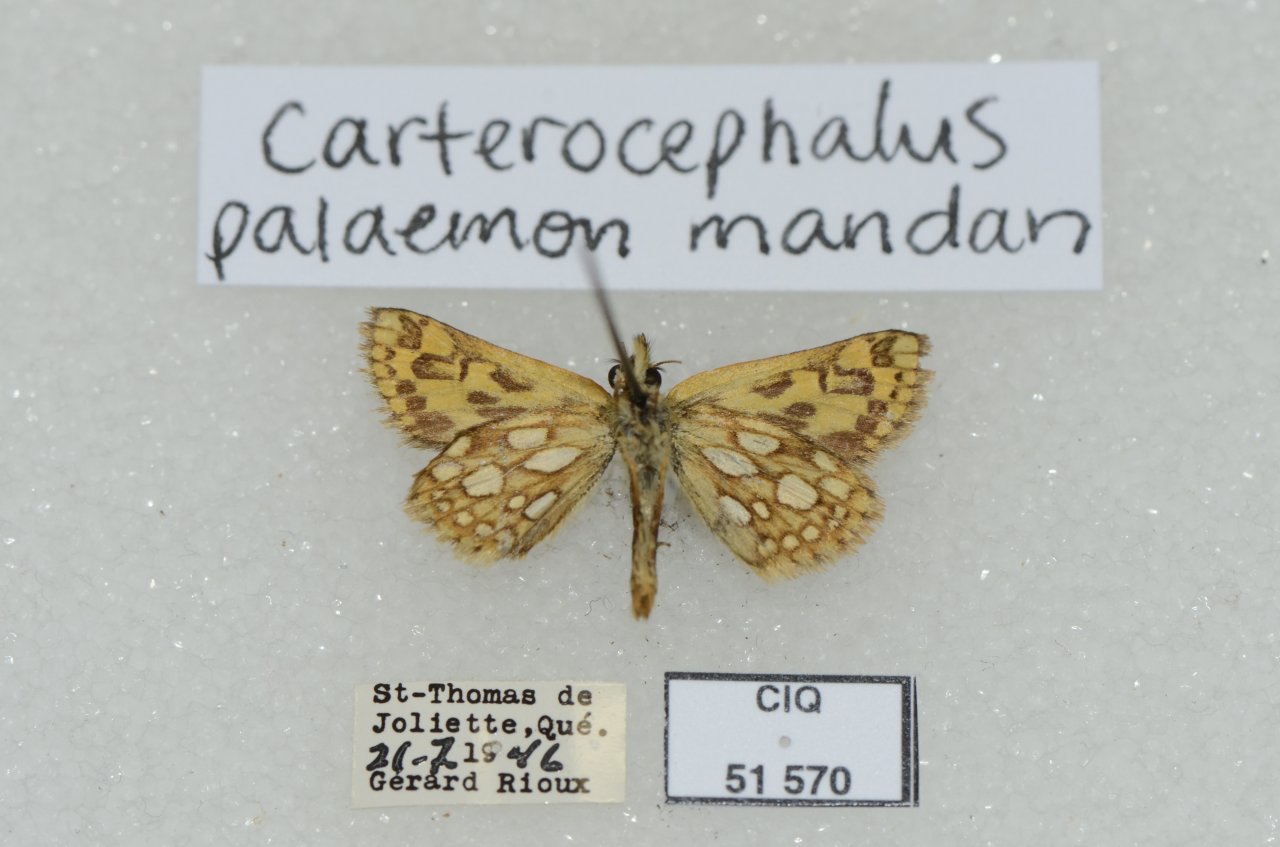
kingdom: Animalia
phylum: Arthropoda
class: Insecta
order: Lepidoptera
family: Hesperiidae
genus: Carterocephalus
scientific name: Carterocephalus palaemon
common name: Chequered Skipper
